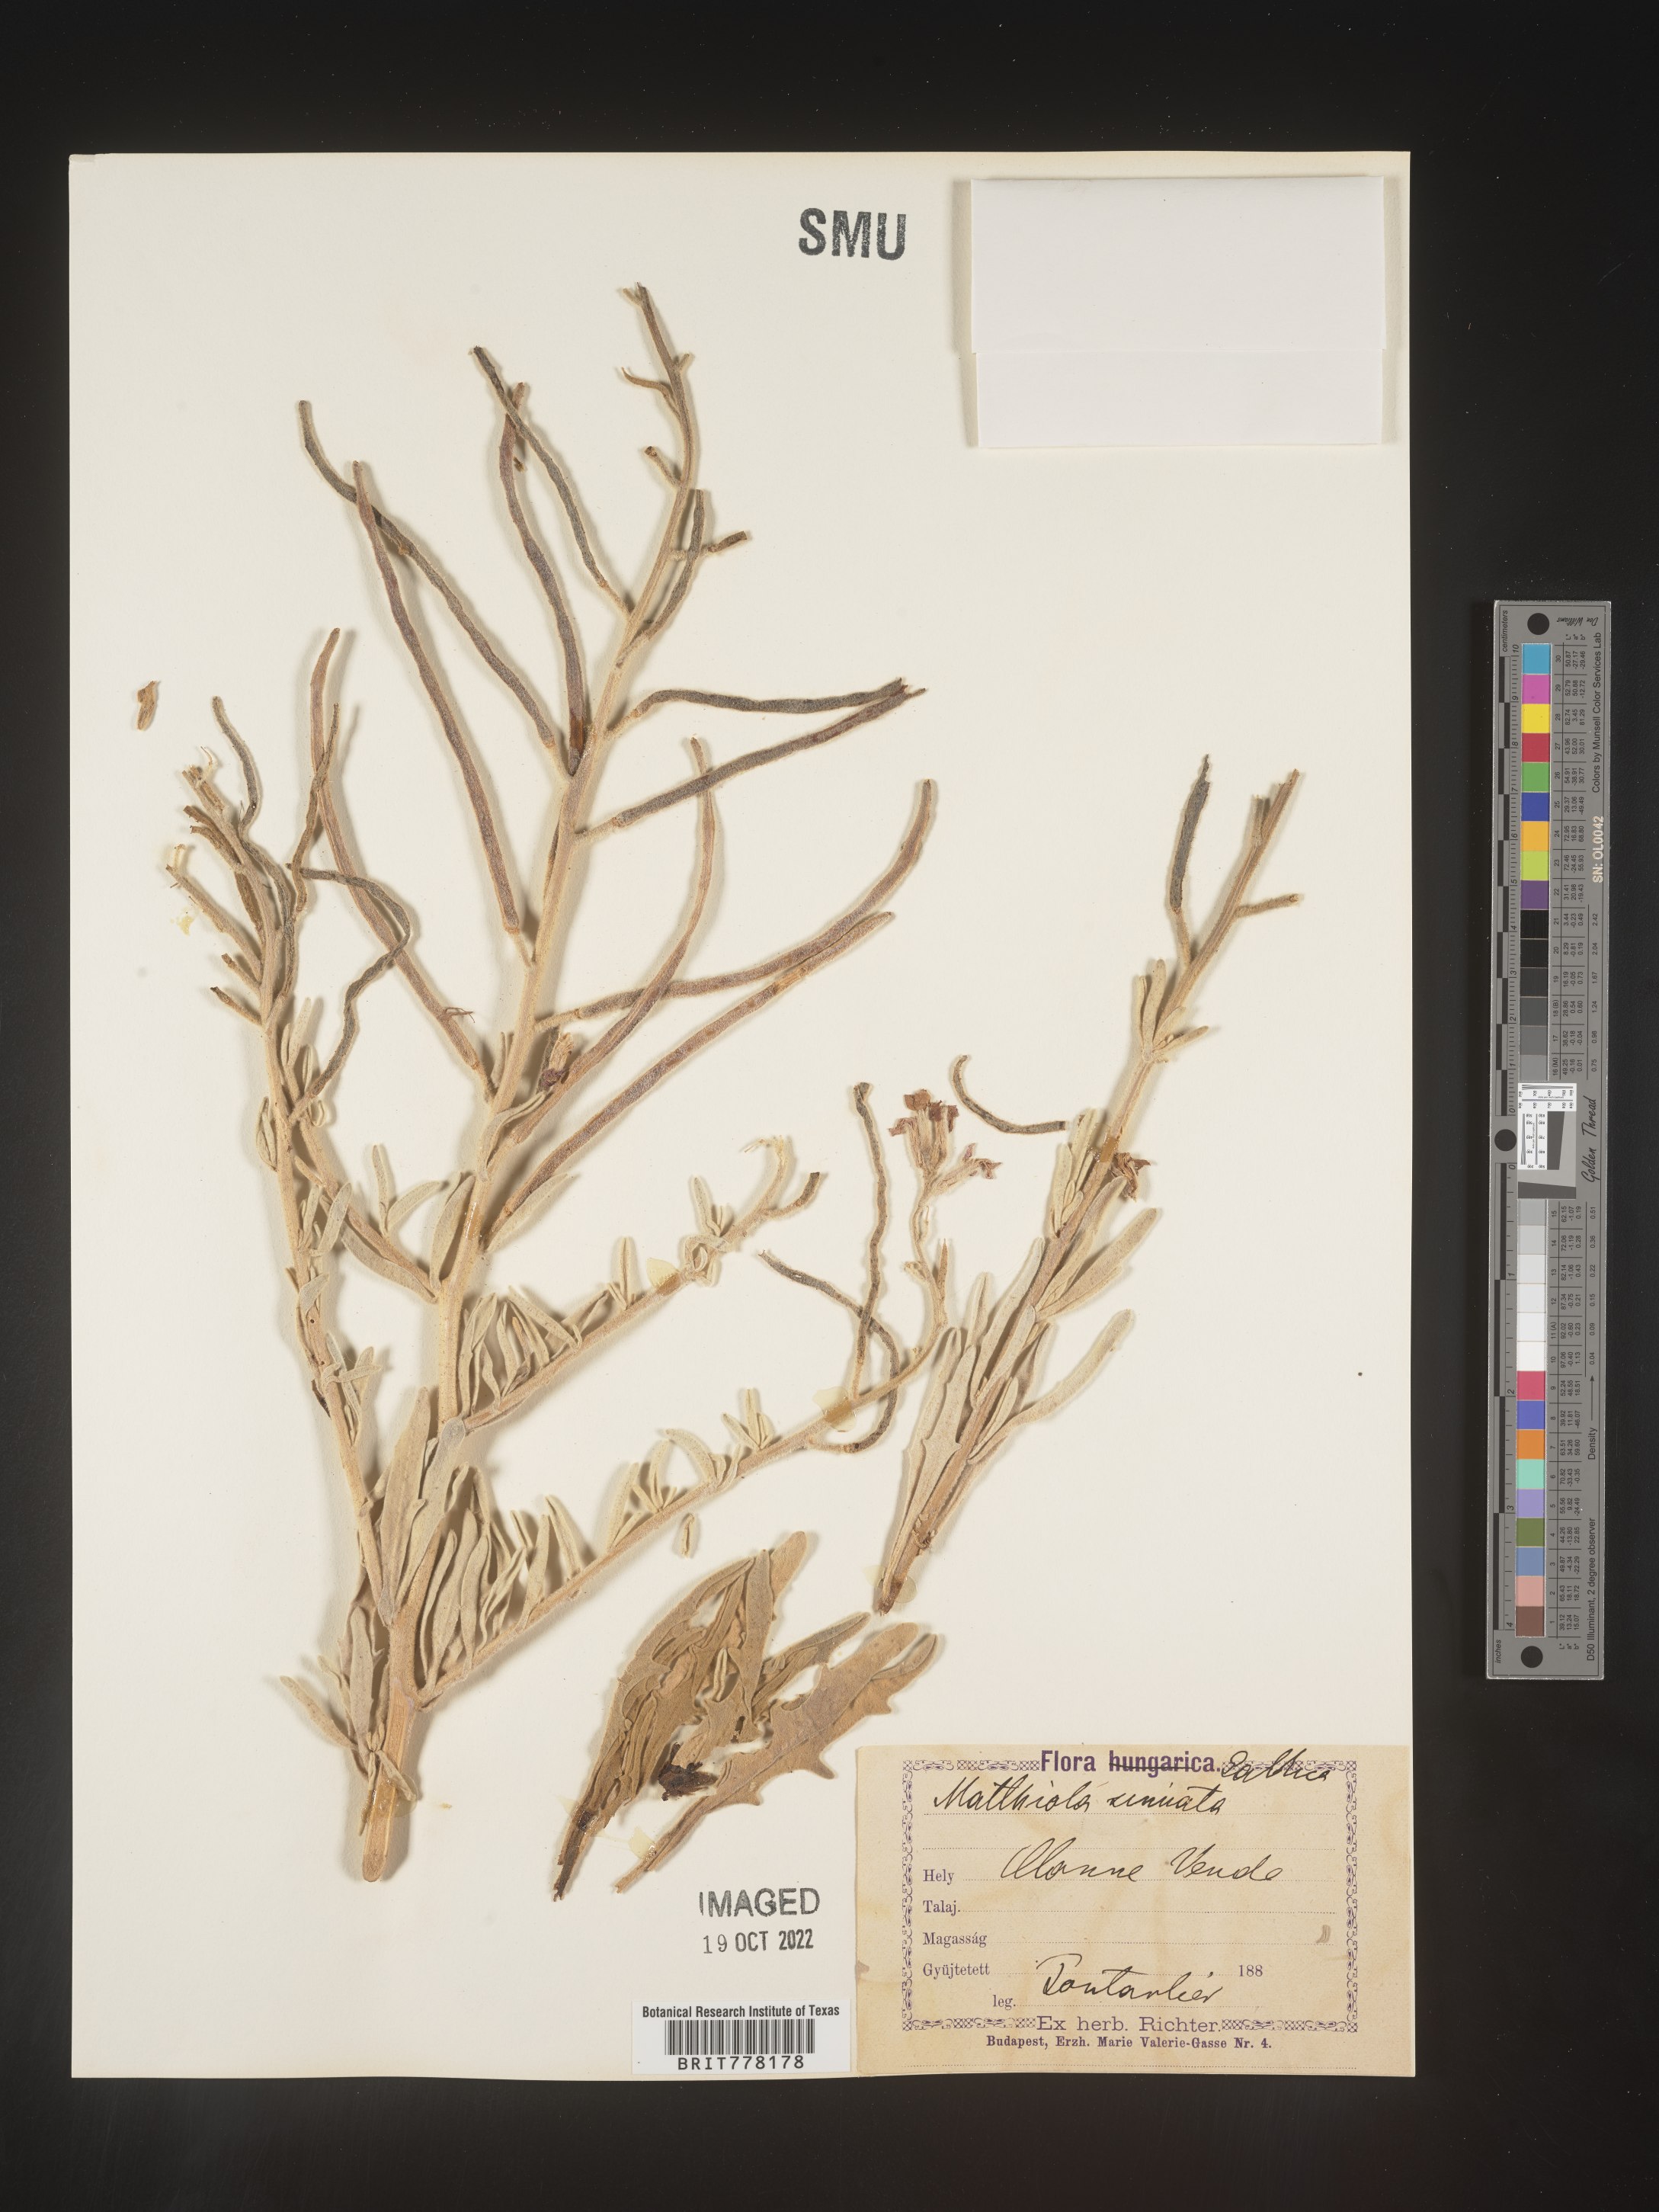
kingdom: Plantae
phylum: Tracheophyta
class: Magnoliopsida
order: Brassicales
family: Brassicaceae
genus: Matthiola
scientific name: Matthiola
